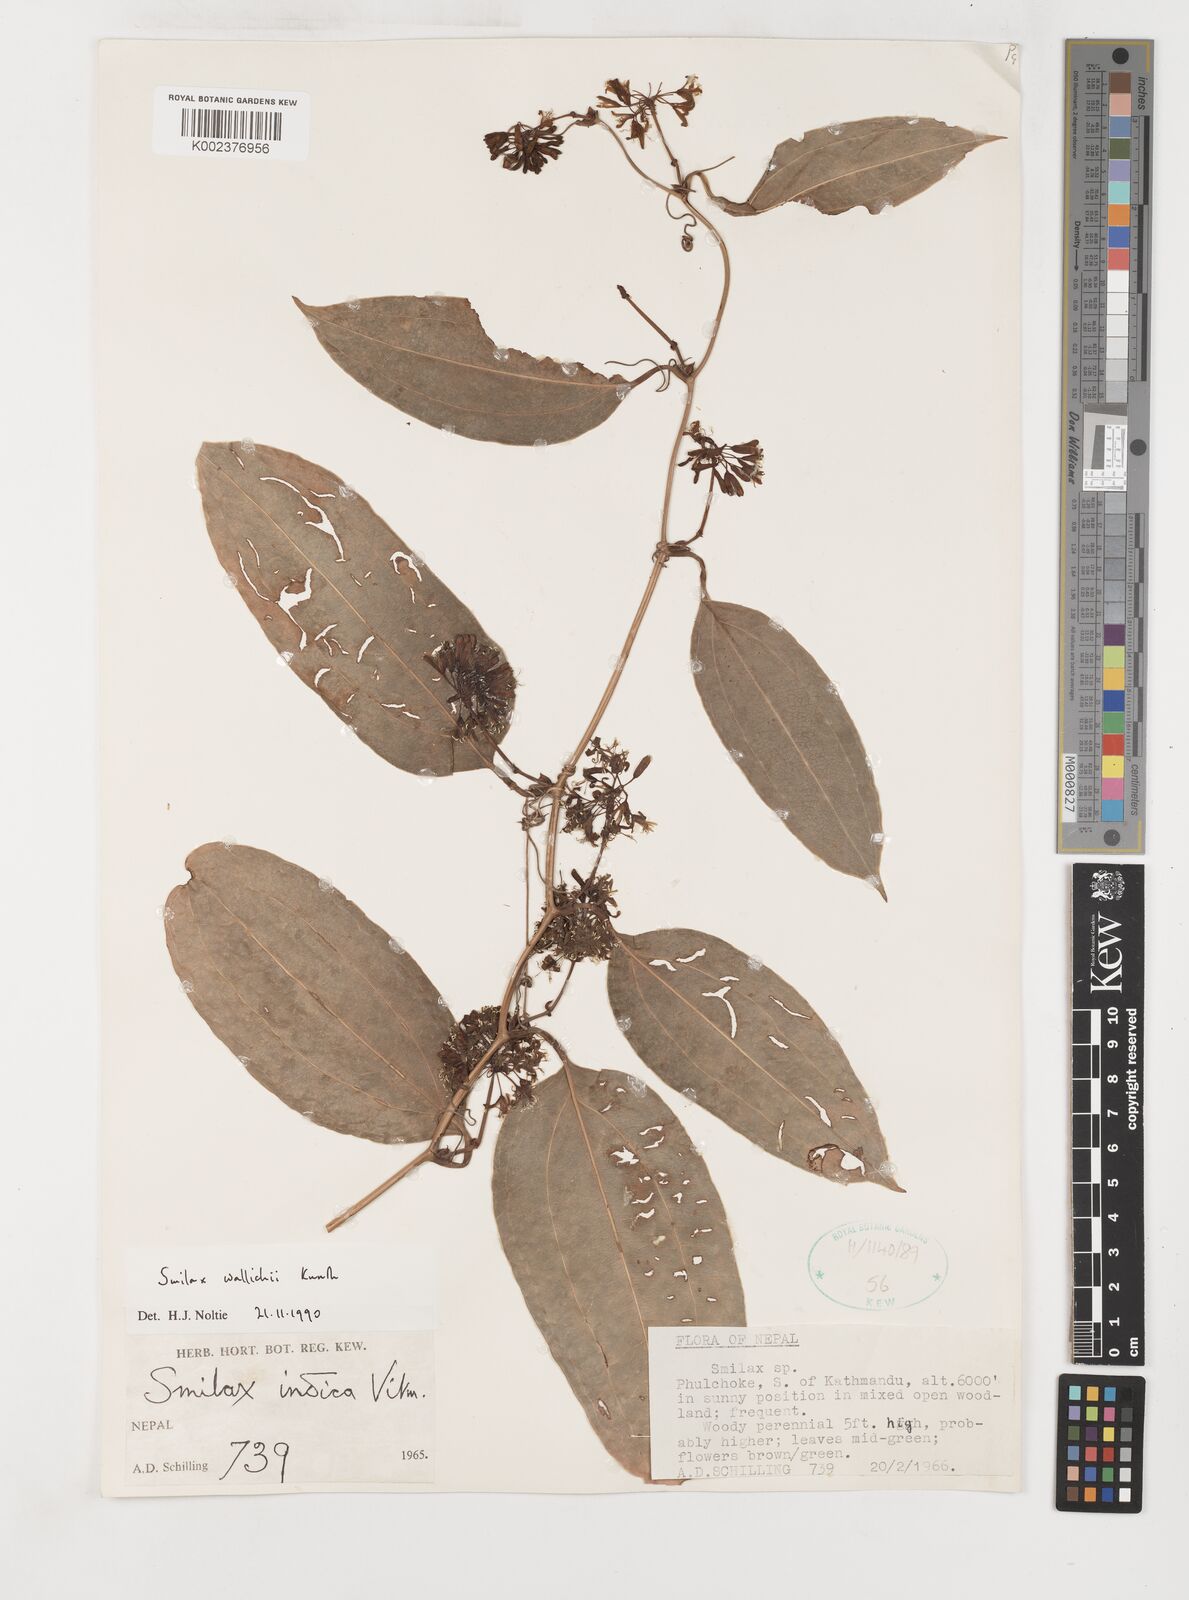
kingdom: Plantae
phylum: Tracheophyta
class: Liliopsida
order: Liliales
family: Smilacaceae
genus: Smilax
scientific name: Smilax wallichii
